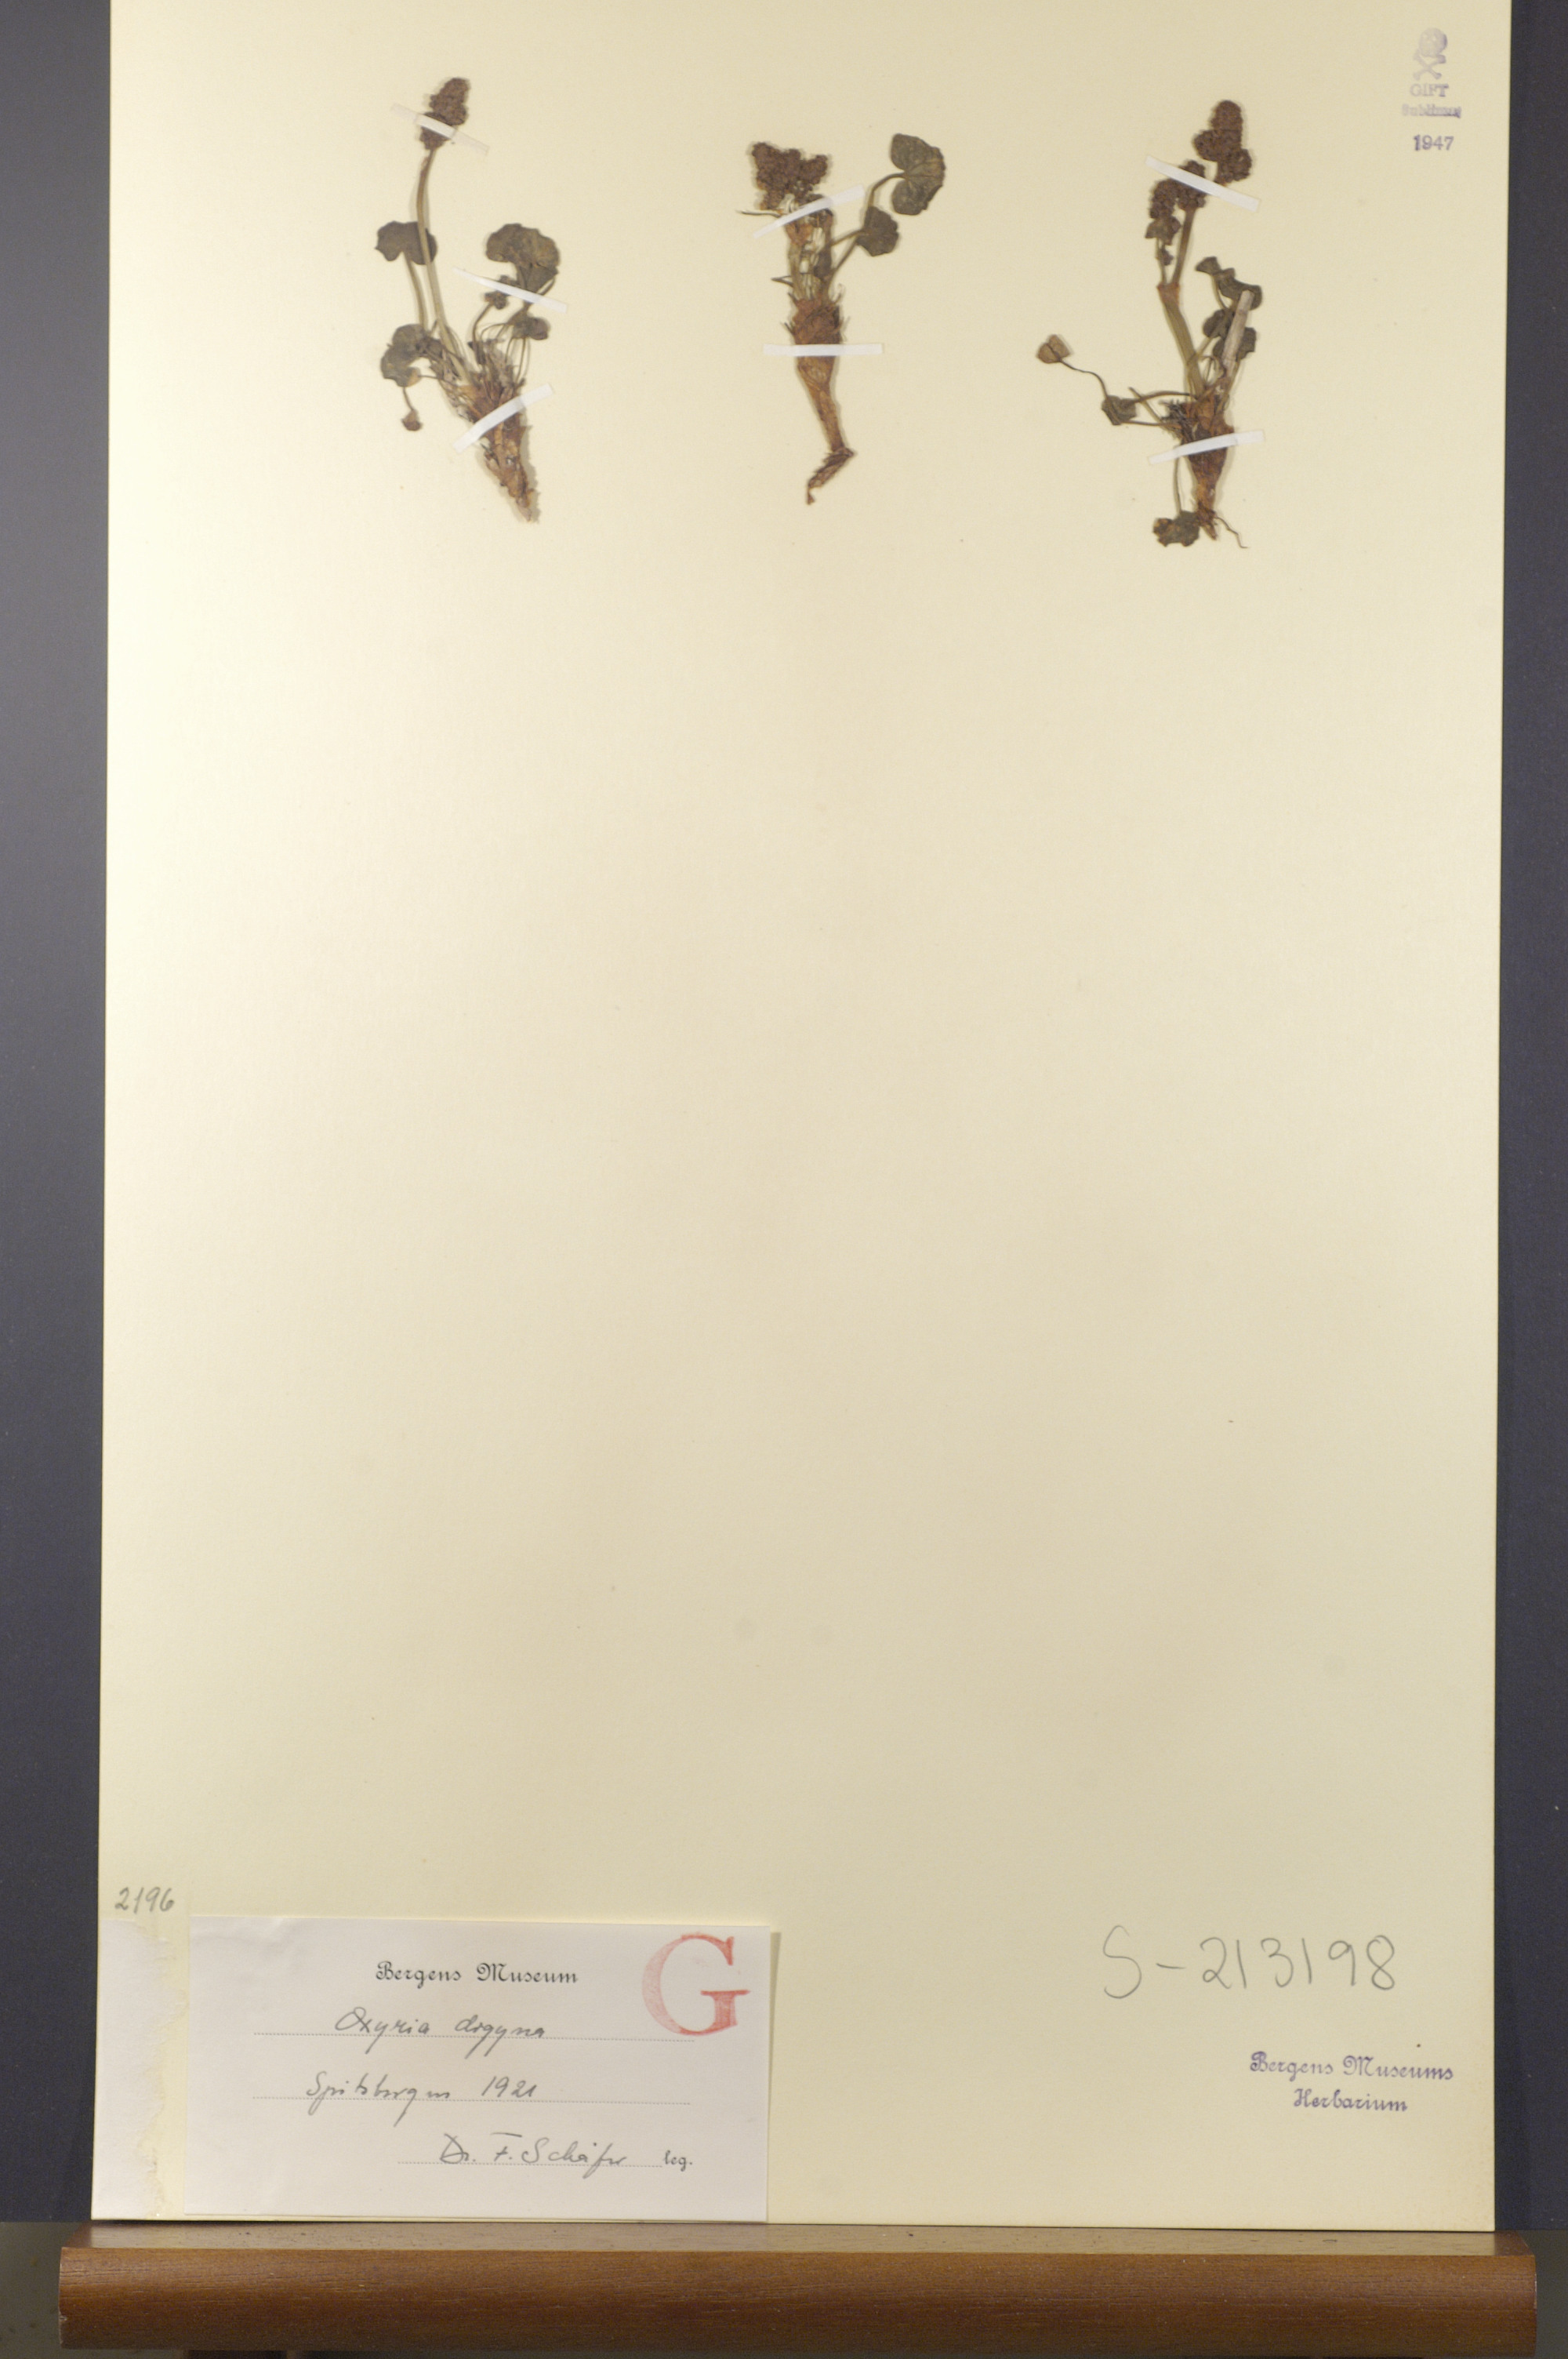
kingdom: Plantae
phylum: Tracheophyta
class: Magnoliopsida
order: Caryophyllales
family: Polygonaceae
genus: Oxyria
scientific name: Oxyria digyna
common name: Alpine mountain-sorrel
